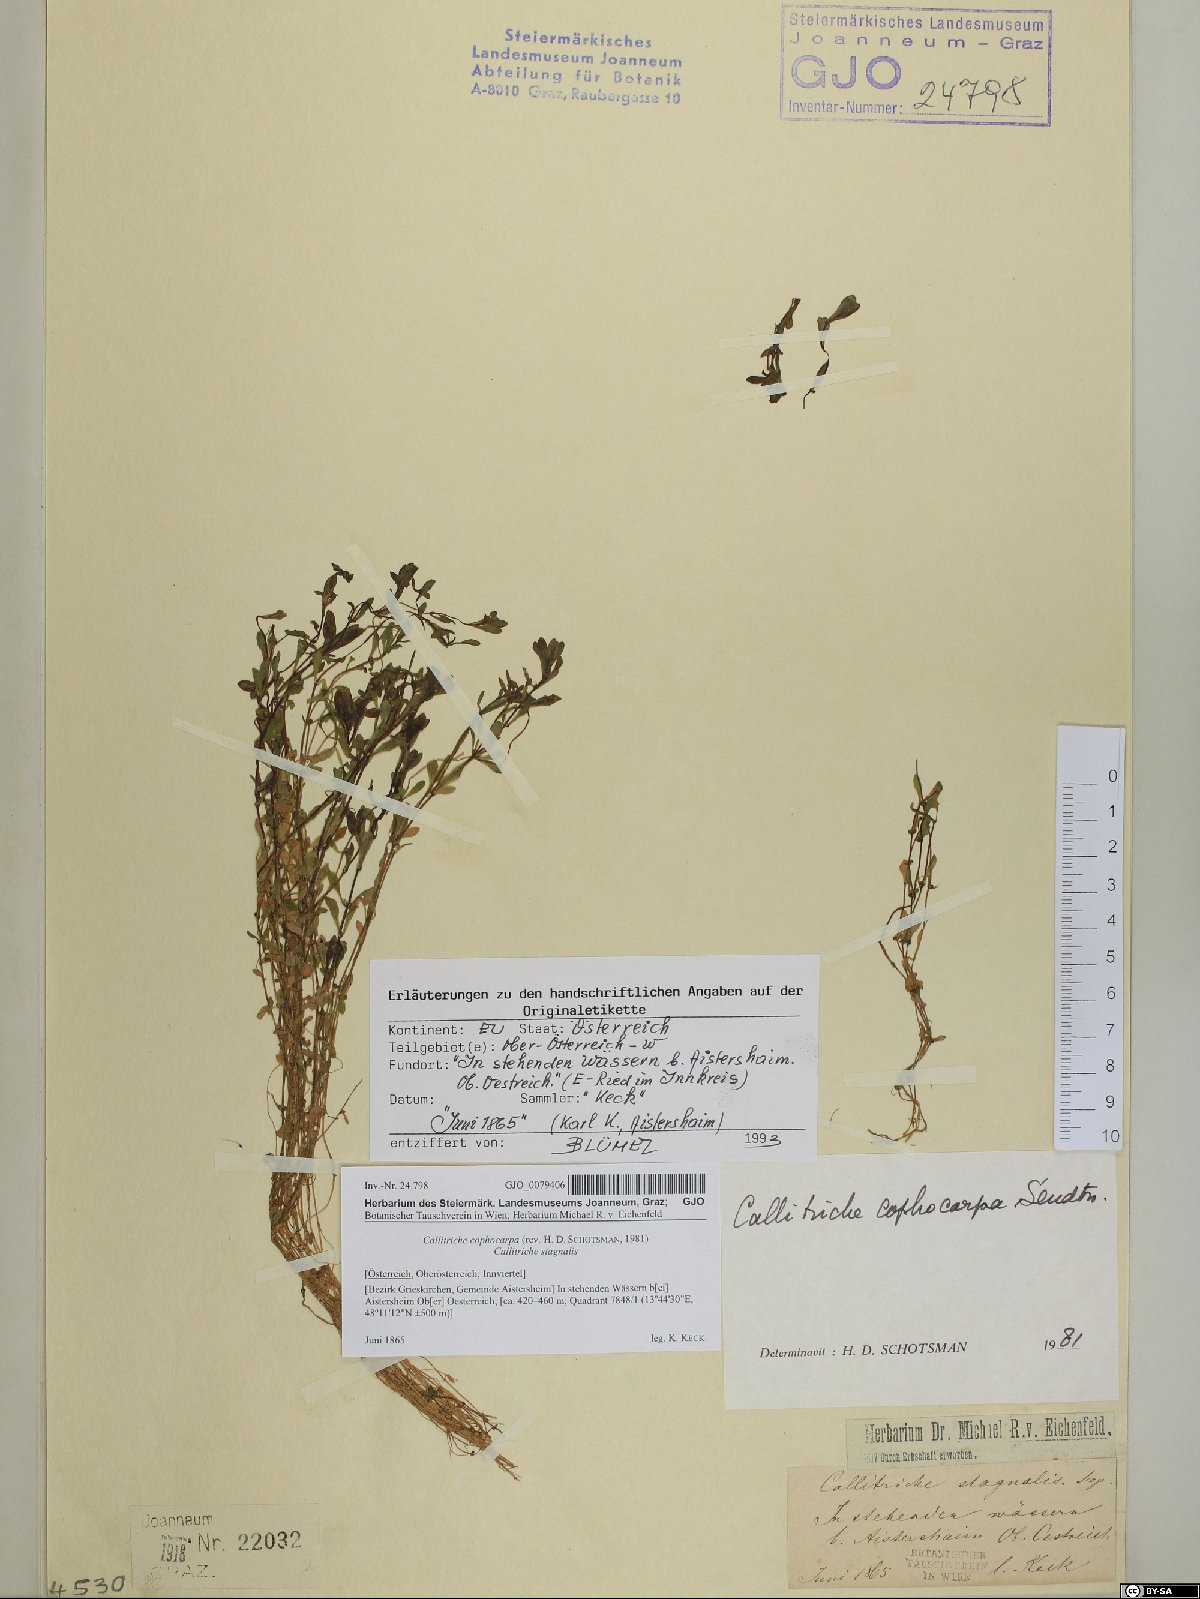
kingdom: Plantae
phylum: Tracheophyta
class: Magnoliopsida
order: Lamiales
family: Plantaginaceae
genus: Callitriche
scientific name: Callitriche cophocarpa
